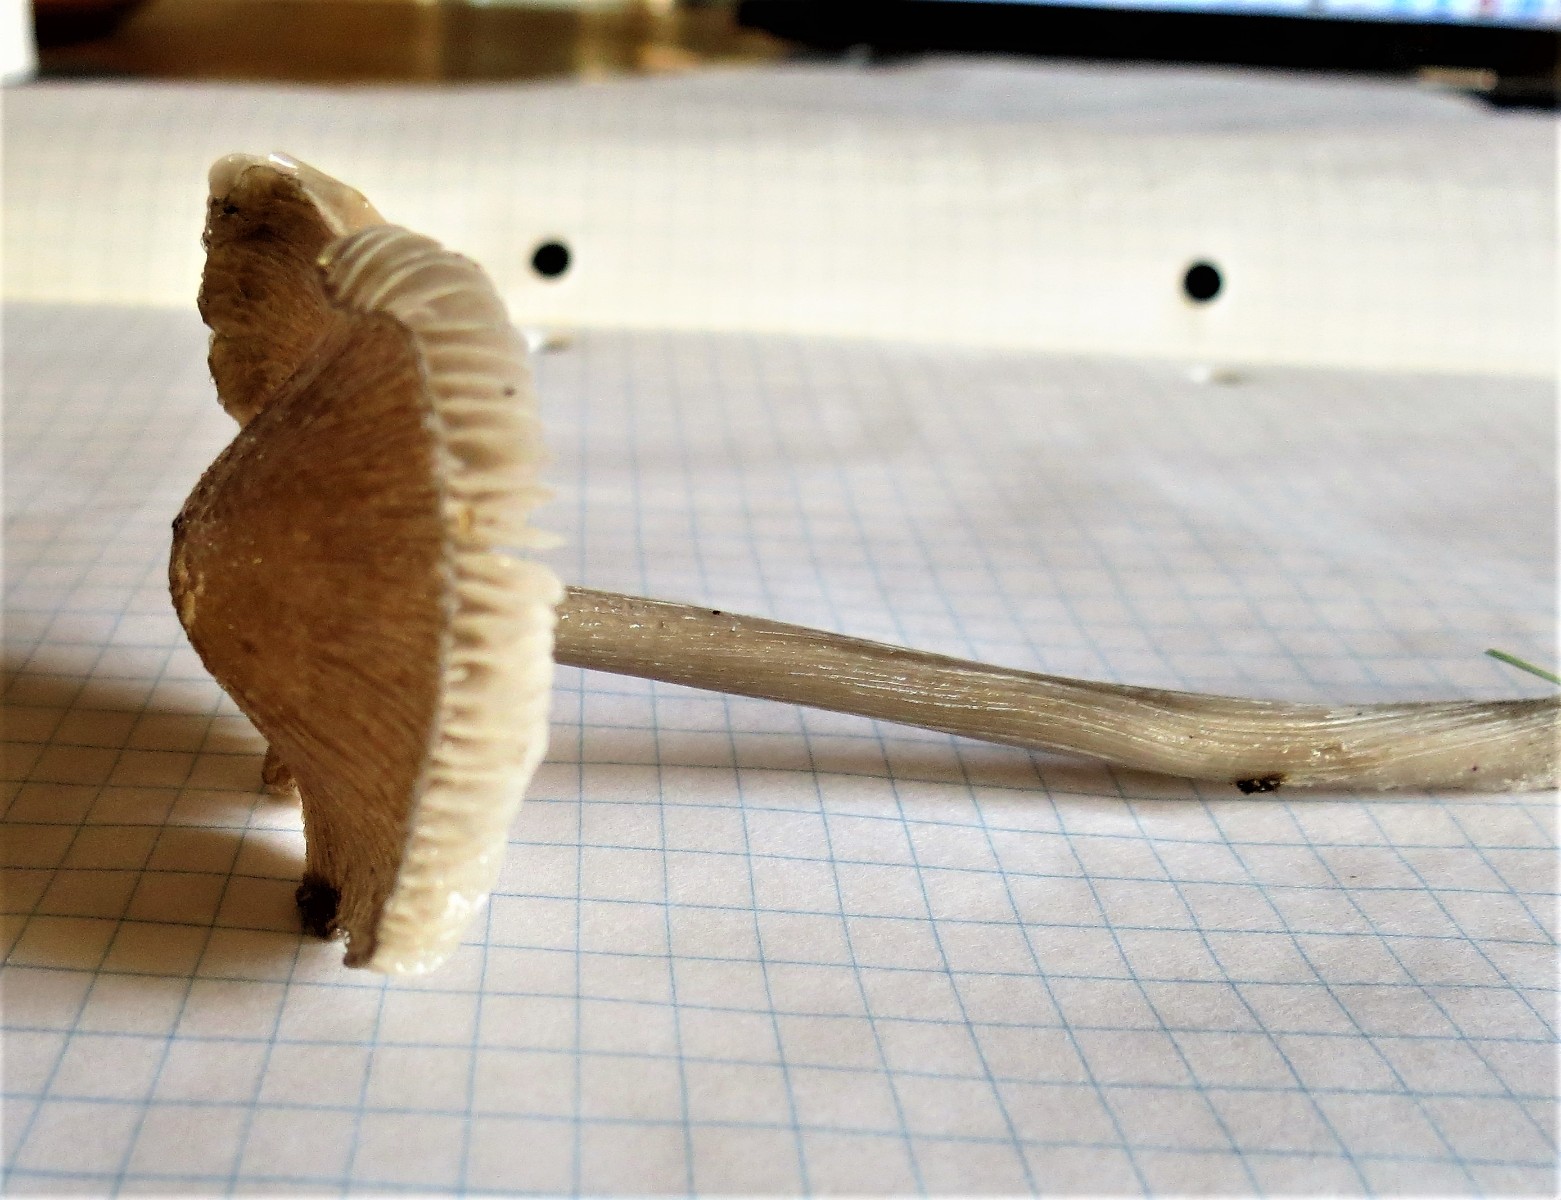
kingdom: Fungi
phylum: Basidiomycota
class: Agaricomycetes
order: Agaricales
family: Mycenaceae
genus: Mycena
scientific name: Mycena polygramma
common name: mangestribet huesvamp
